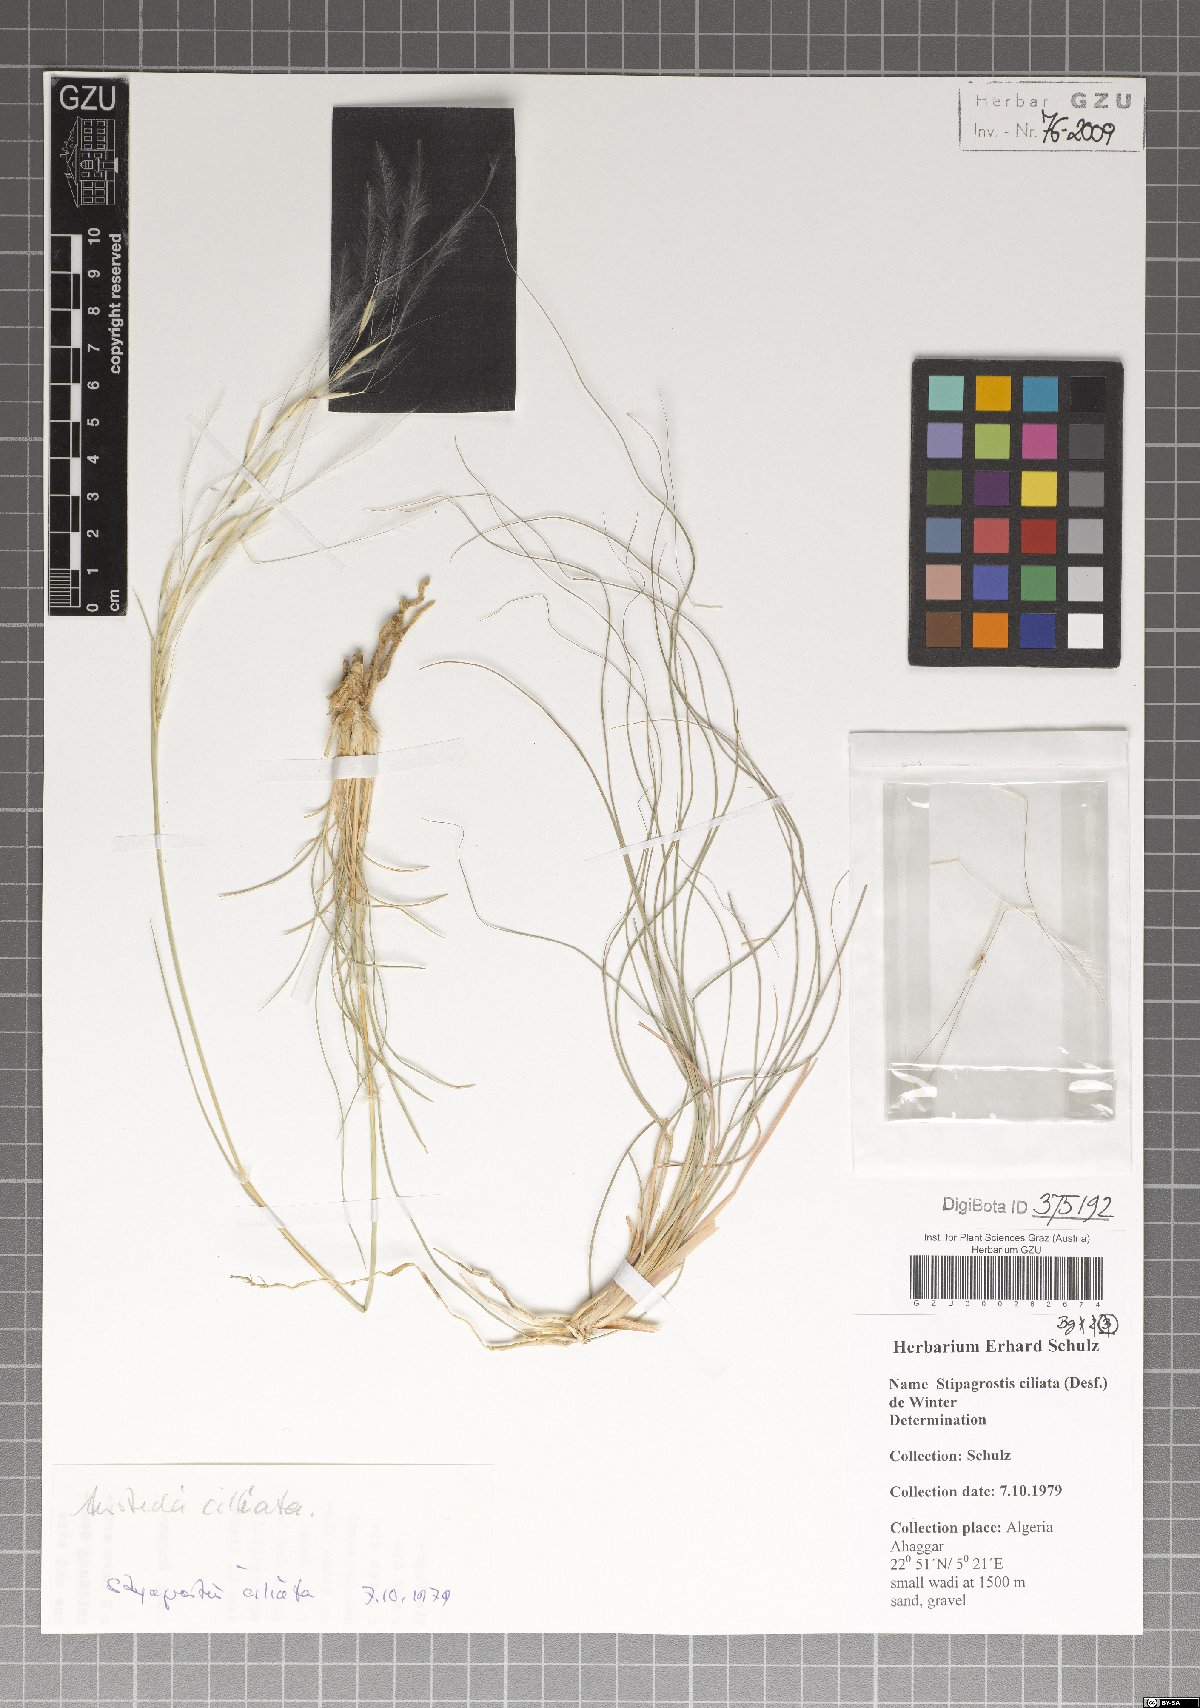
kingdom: Plantae
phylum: Tracheophyta
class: Liliopsida
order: Poales
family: Poaceae
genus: Stipagrostis
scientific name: Stipagrostis ciliata
